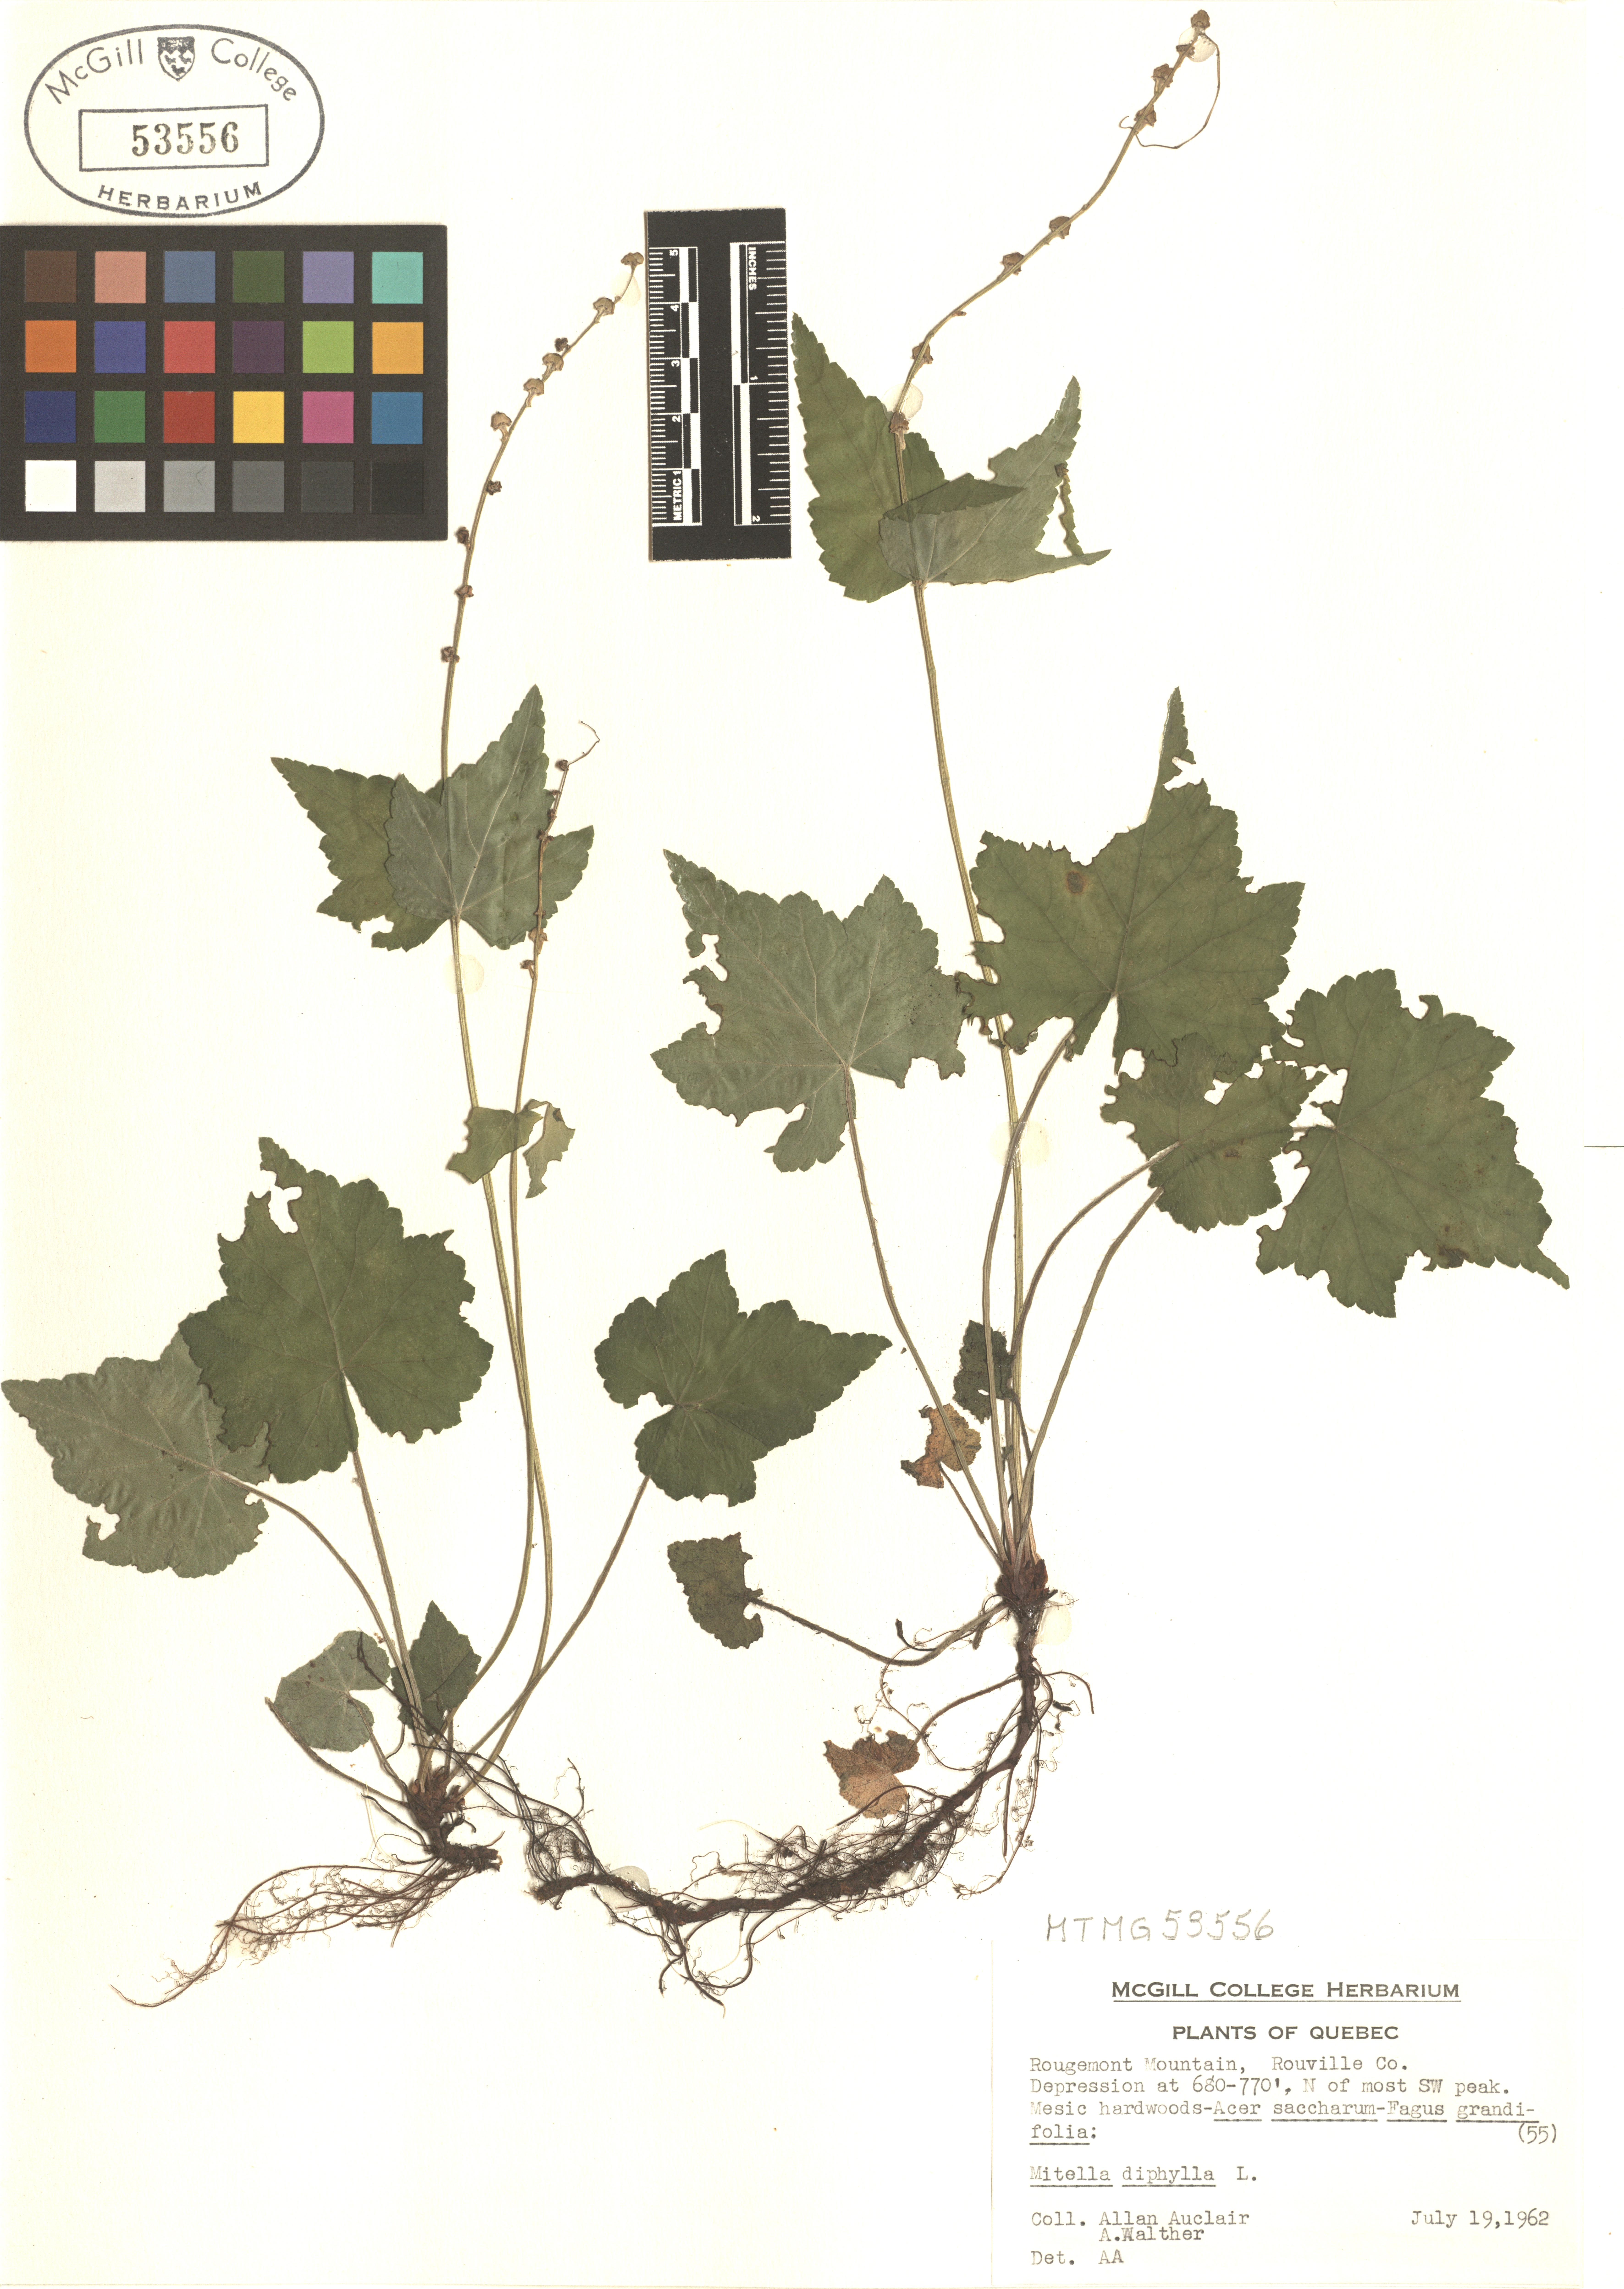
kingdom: Plantae
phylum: Tracheophyta
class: Magnoliopsida
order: Saxifragales
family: Saxifragaceae
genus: Mitella
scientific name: Mitella diphylla
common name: Coolwort
